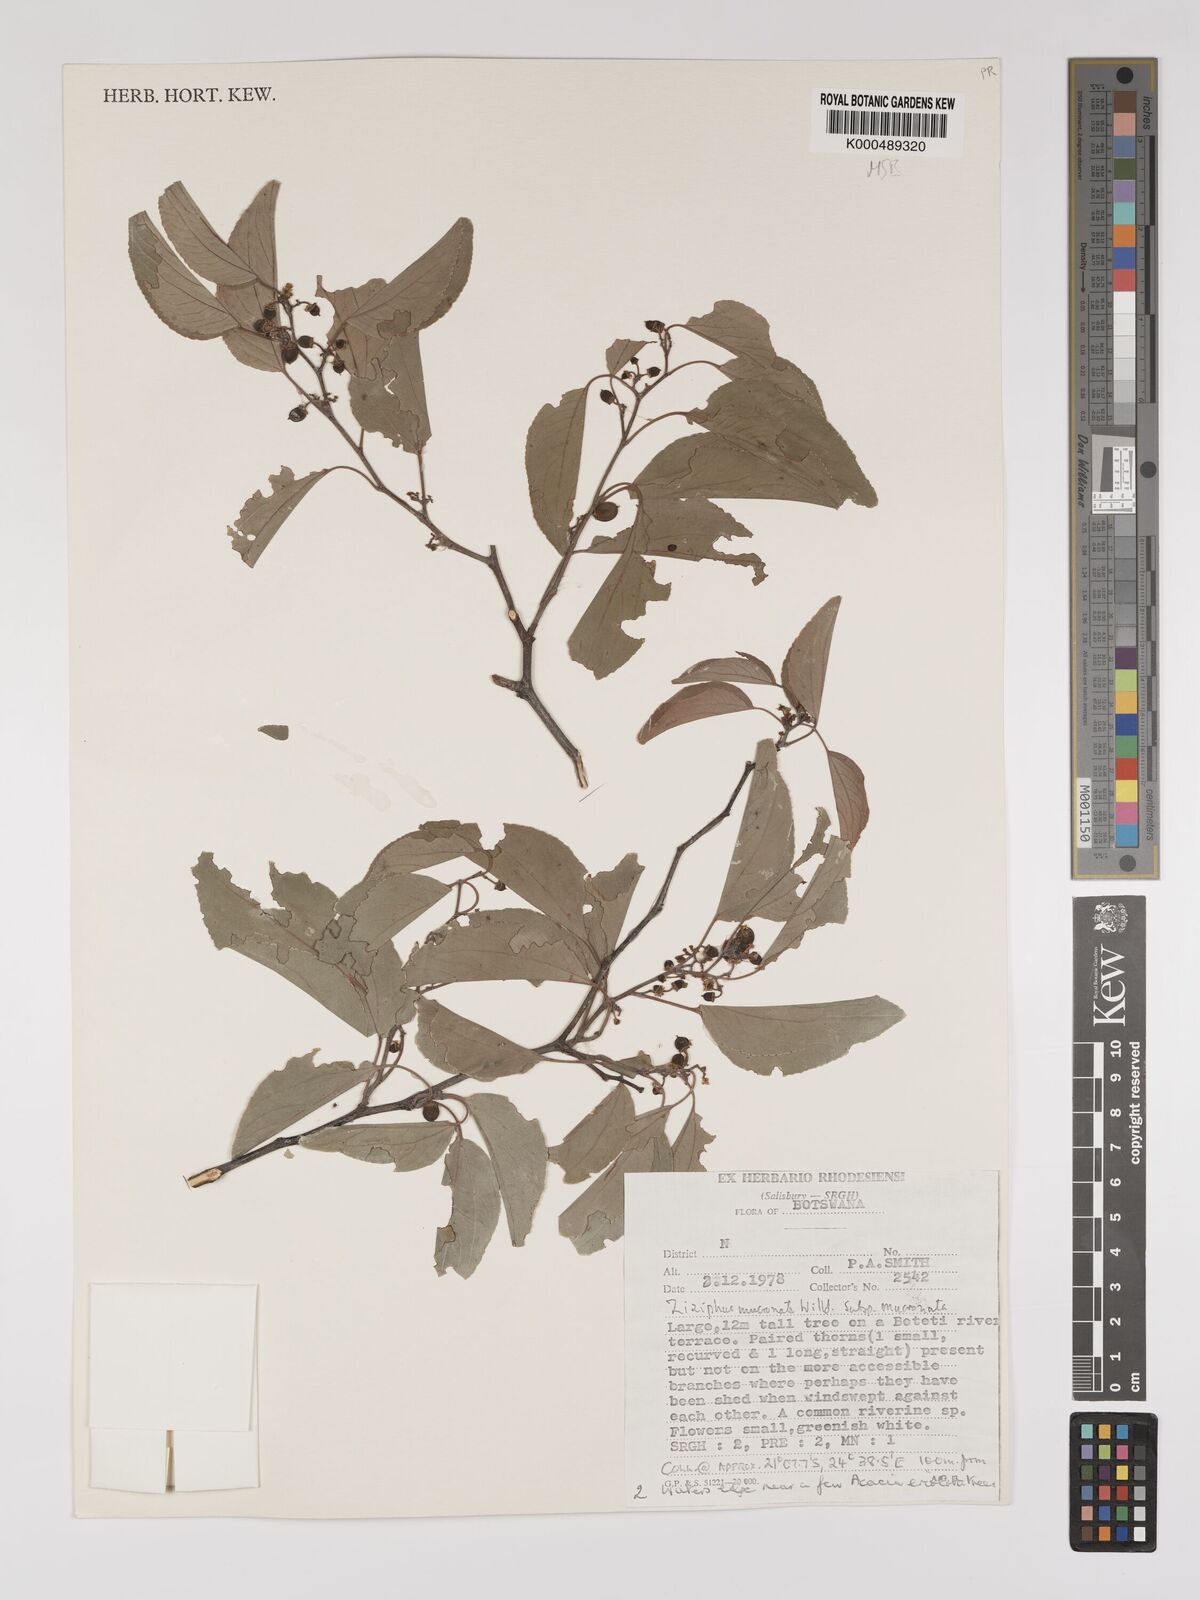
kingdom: Plantae
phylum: Tracheophyta
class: Magnoliopsida
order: Rosales
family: Rhamnaceae
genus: Ziziphus
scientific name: Ziziphus mucronata
